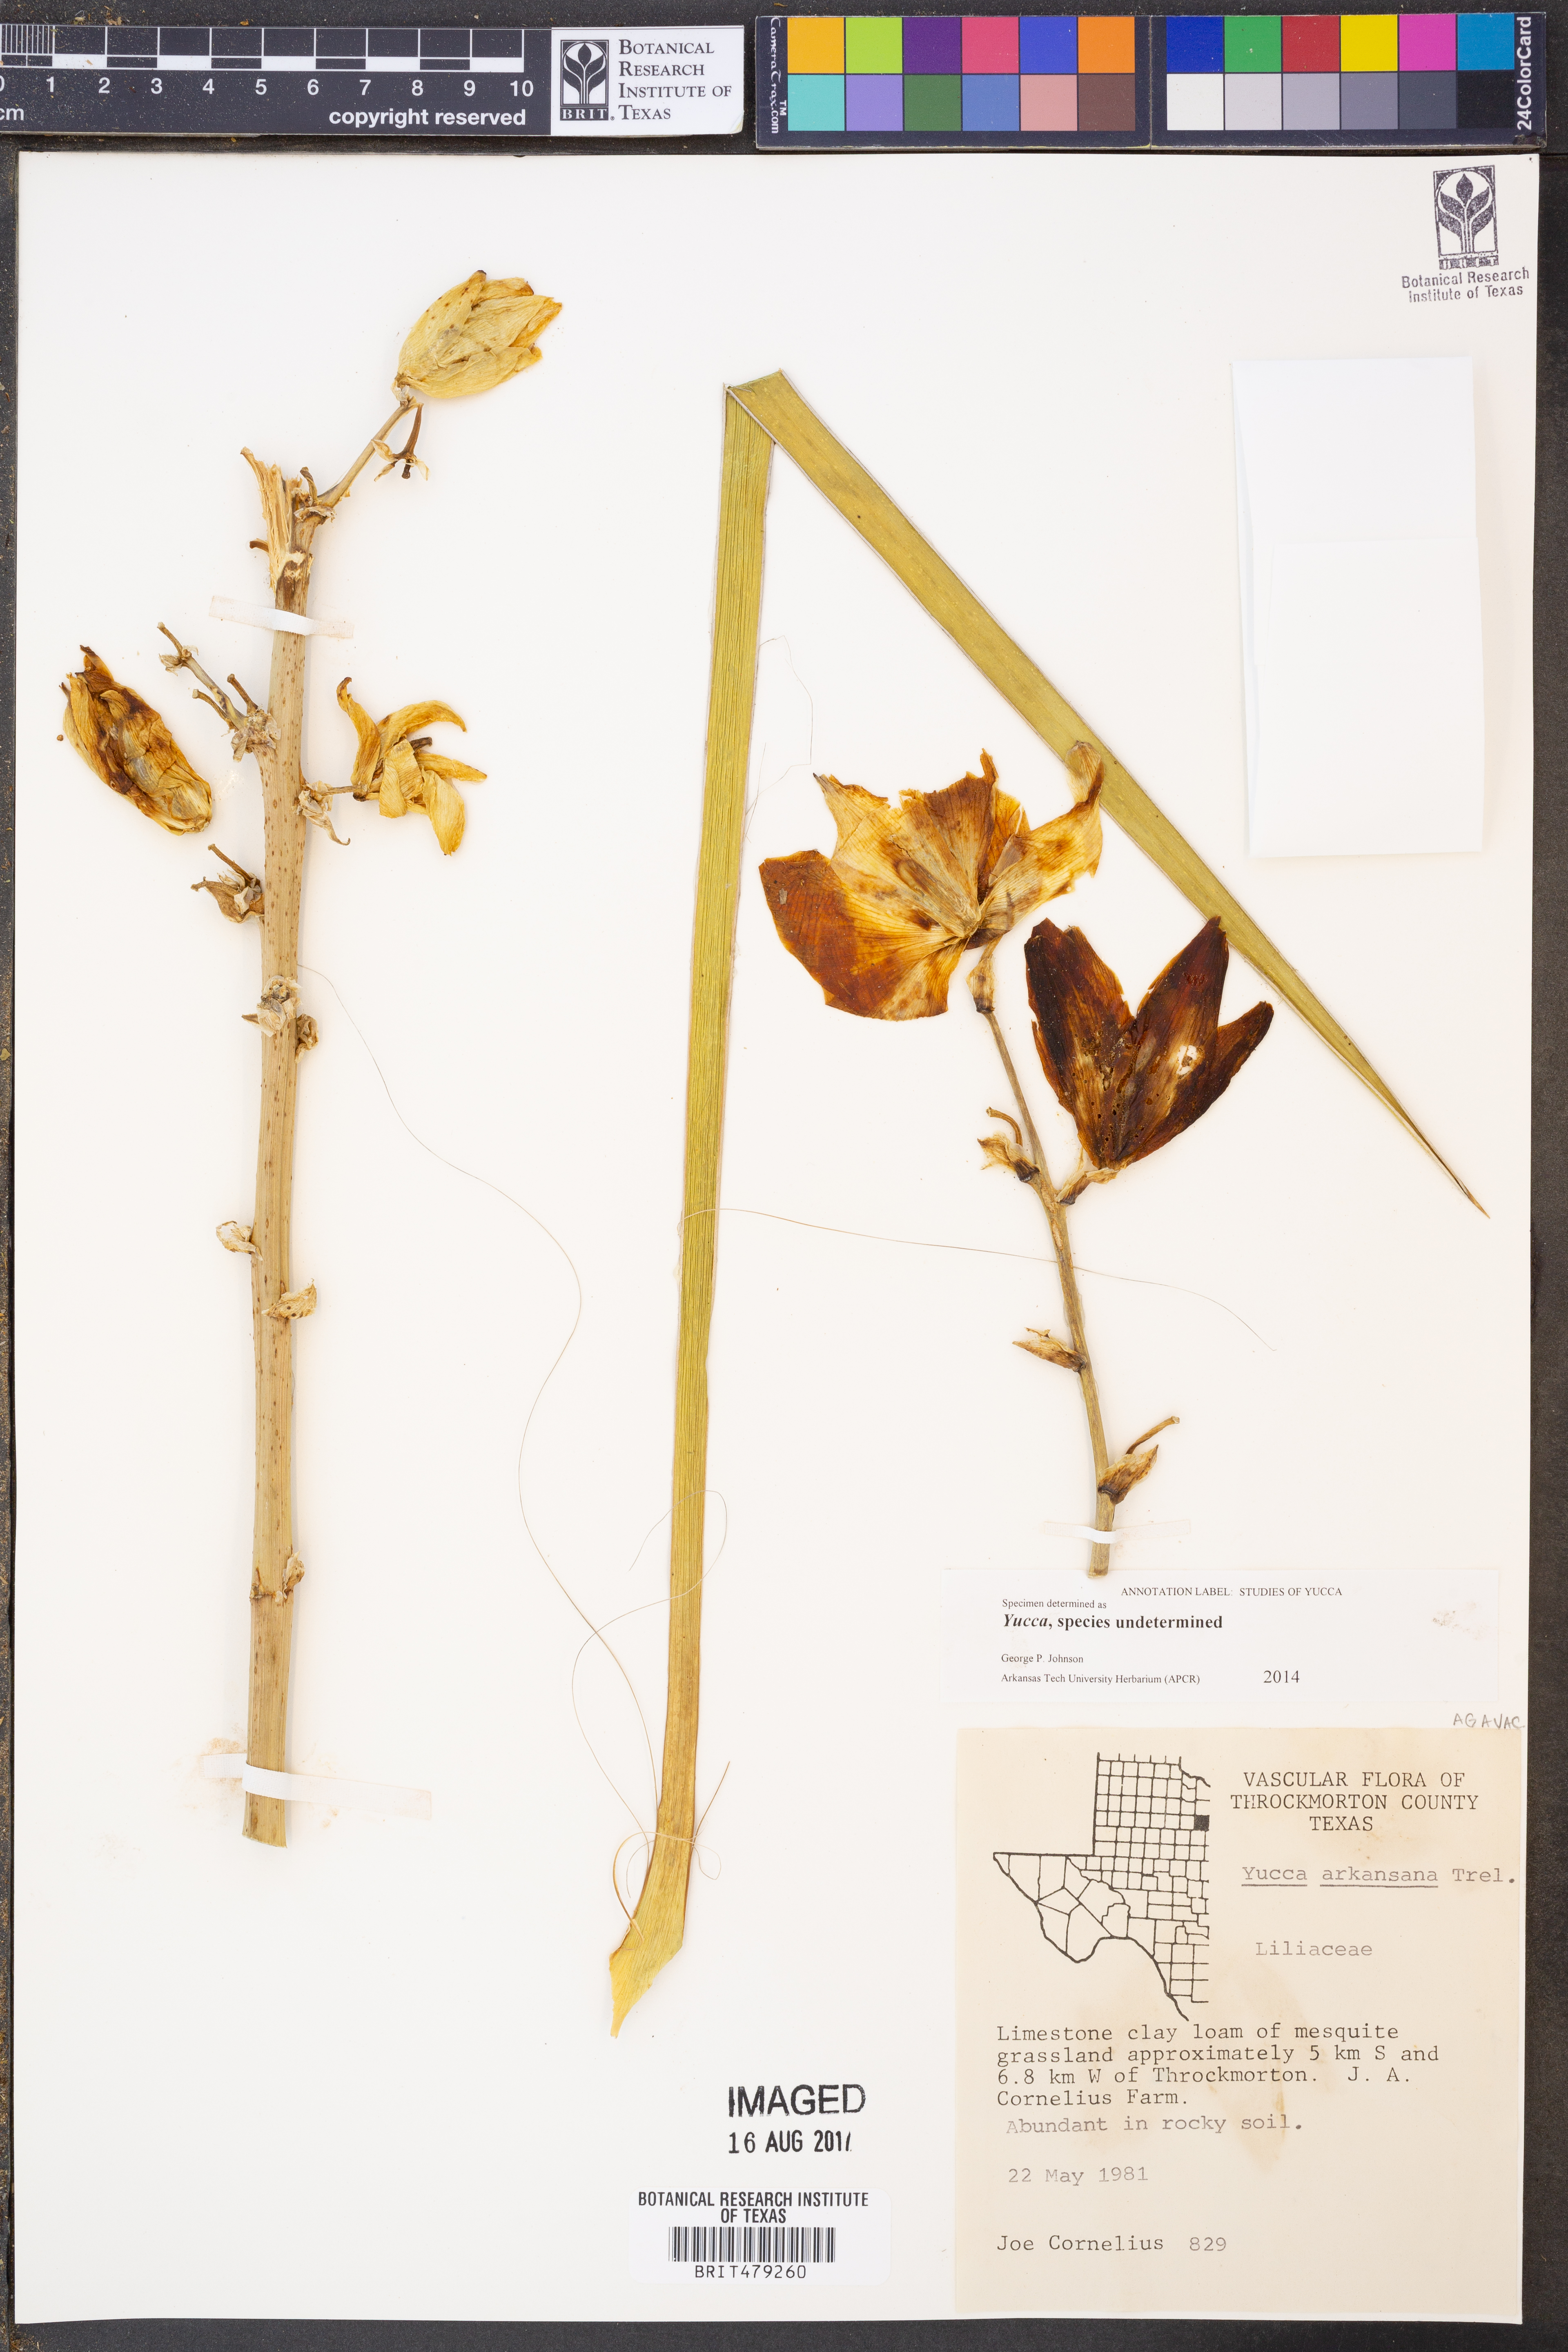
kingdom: Plantae
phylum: Tracheophyta
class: Liliopsida
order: Asparagales
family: Asparagaceae
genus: Yucca
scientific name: Yucca
